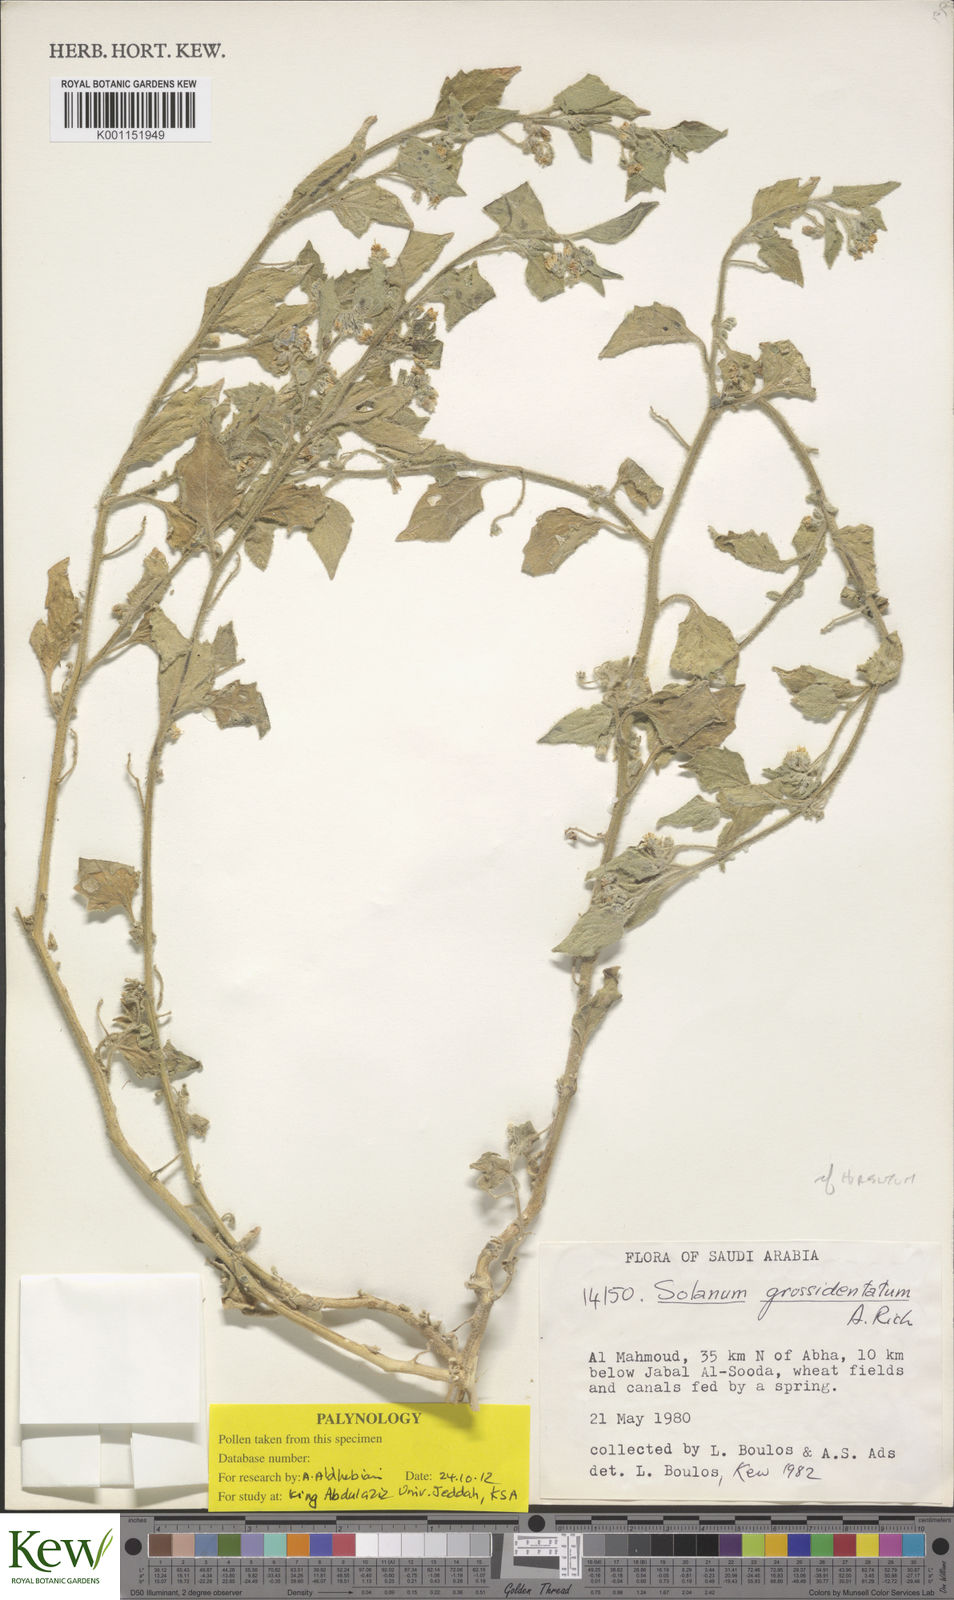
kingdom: Plantae
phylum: Tracheophyta
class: Magnoliopsida
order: Solanales
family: Solanaceae
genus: Solanum
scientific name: Solanum memphiticum
